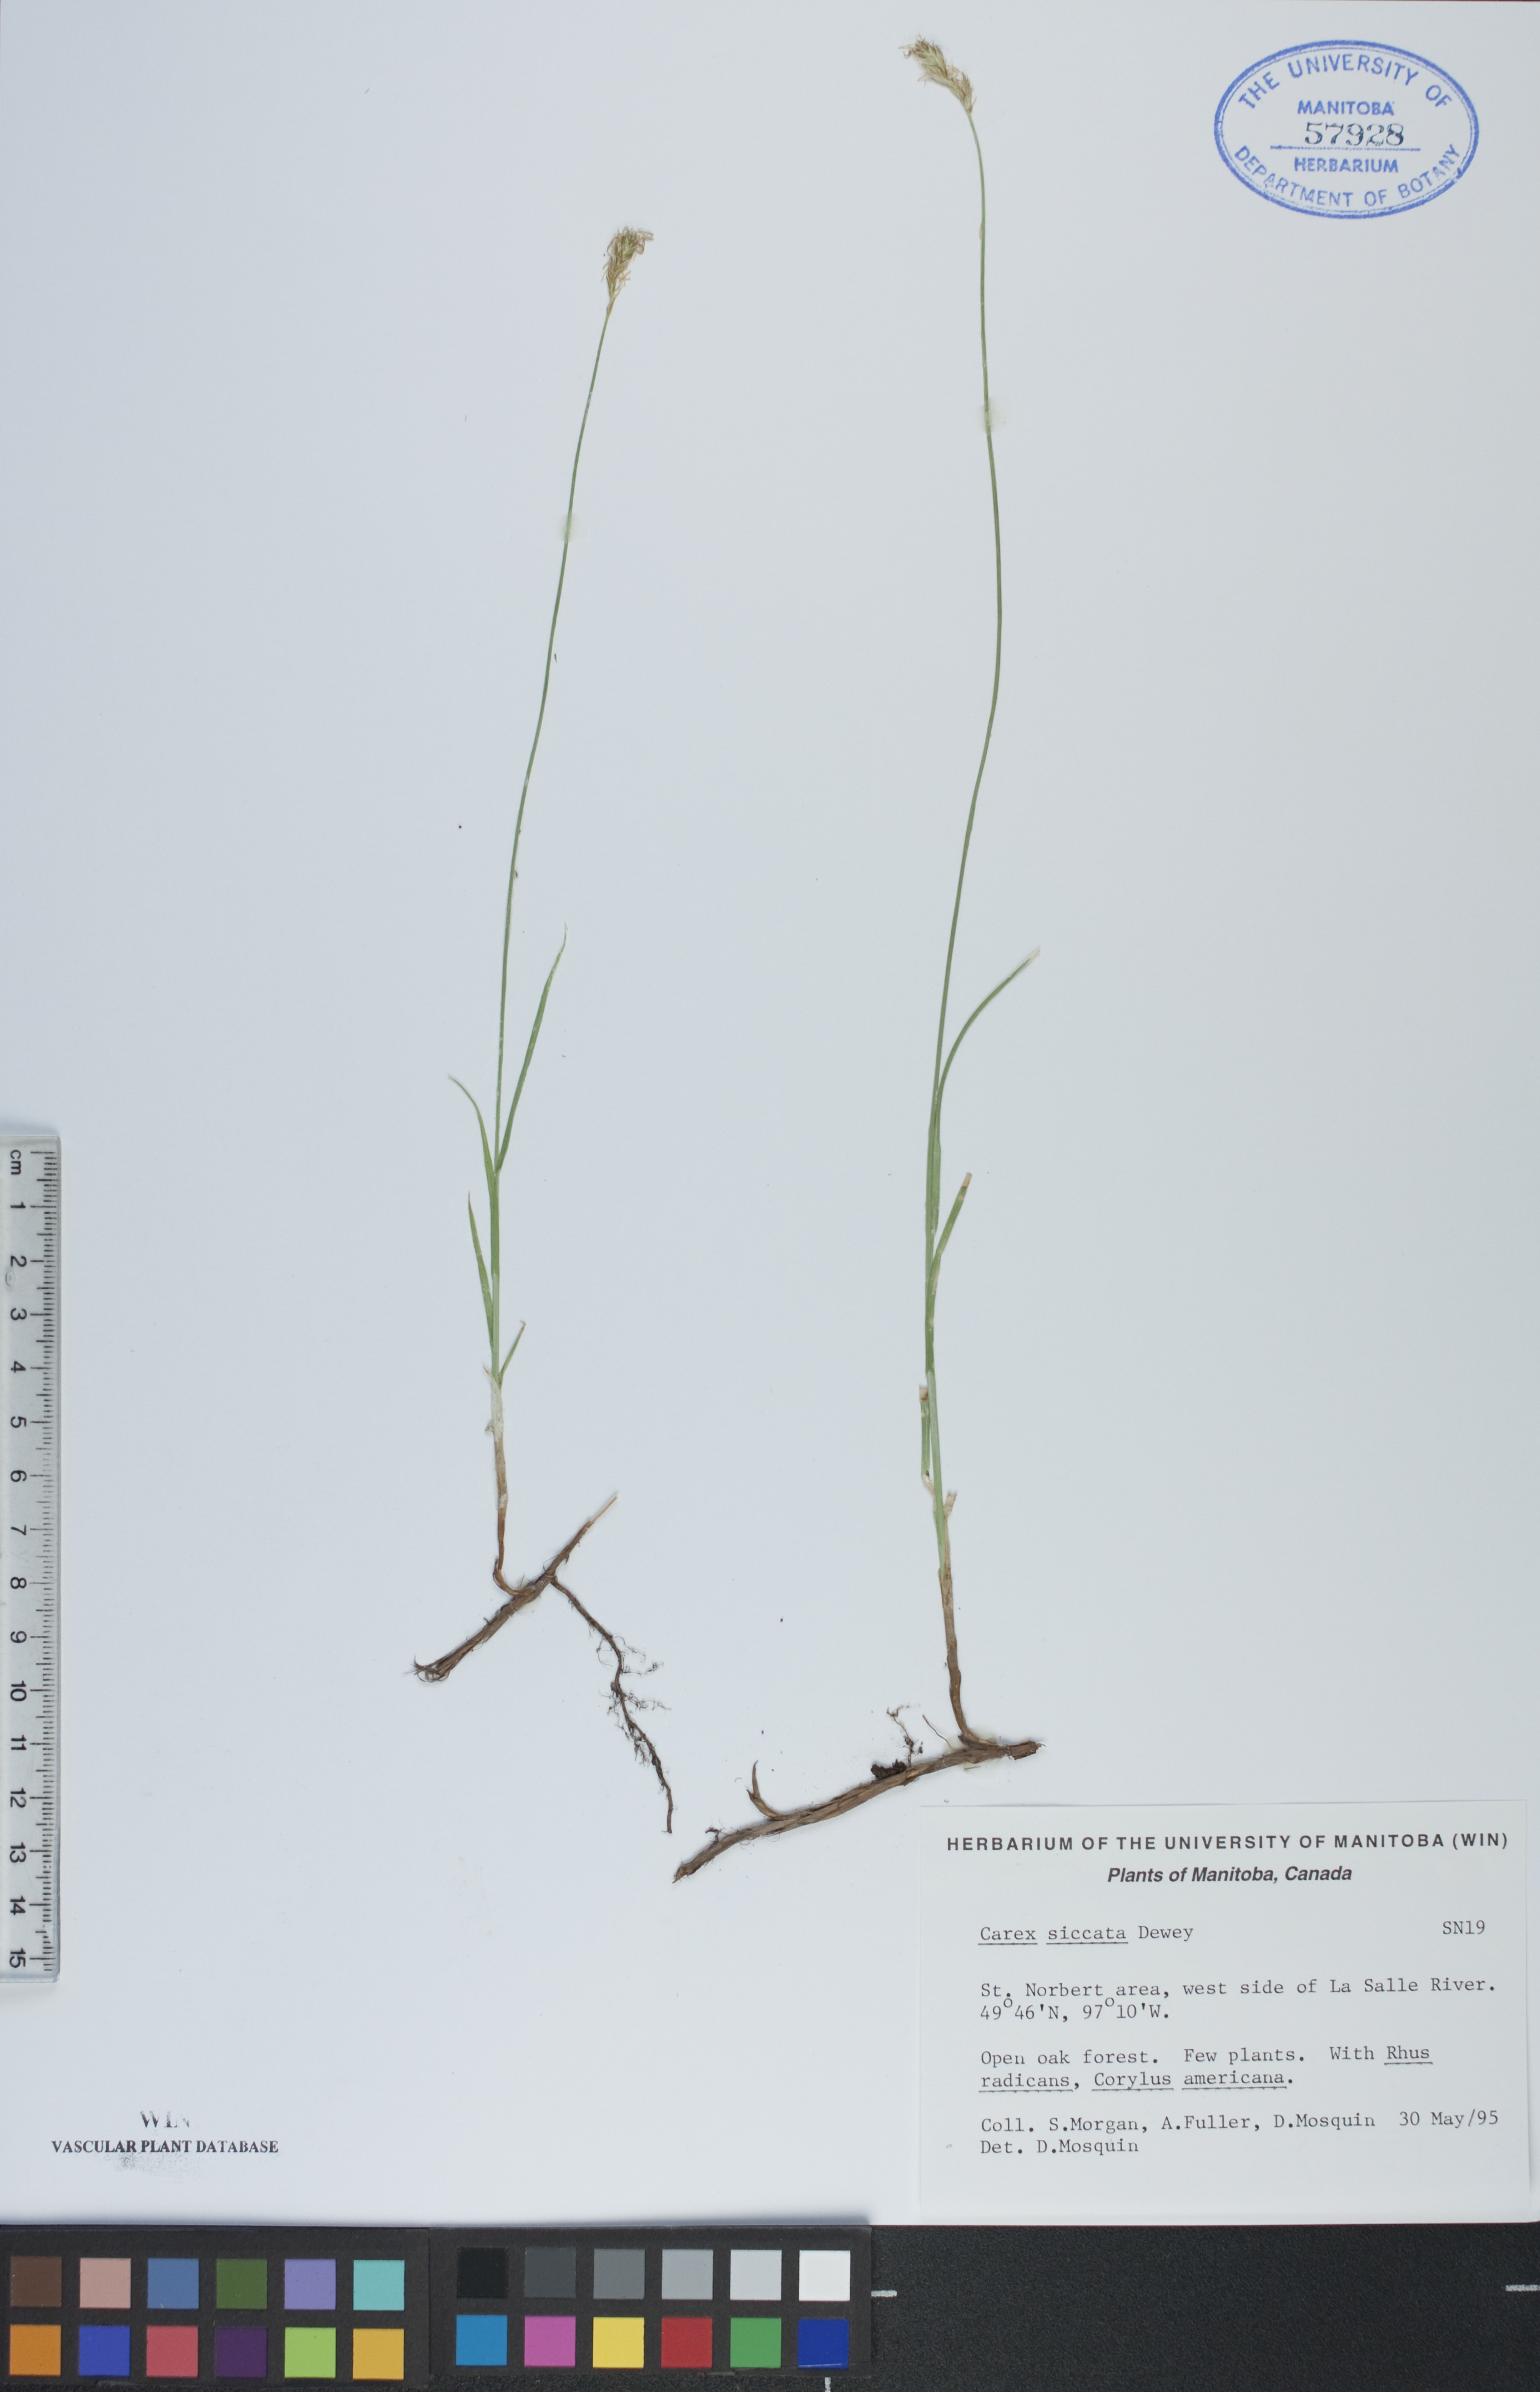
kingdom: Plantae
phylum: Tracheophyta
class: Liliopsida
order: Poales
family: Cyperaceae
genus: Carex
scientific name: Carex siccata
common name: Dry sedge
